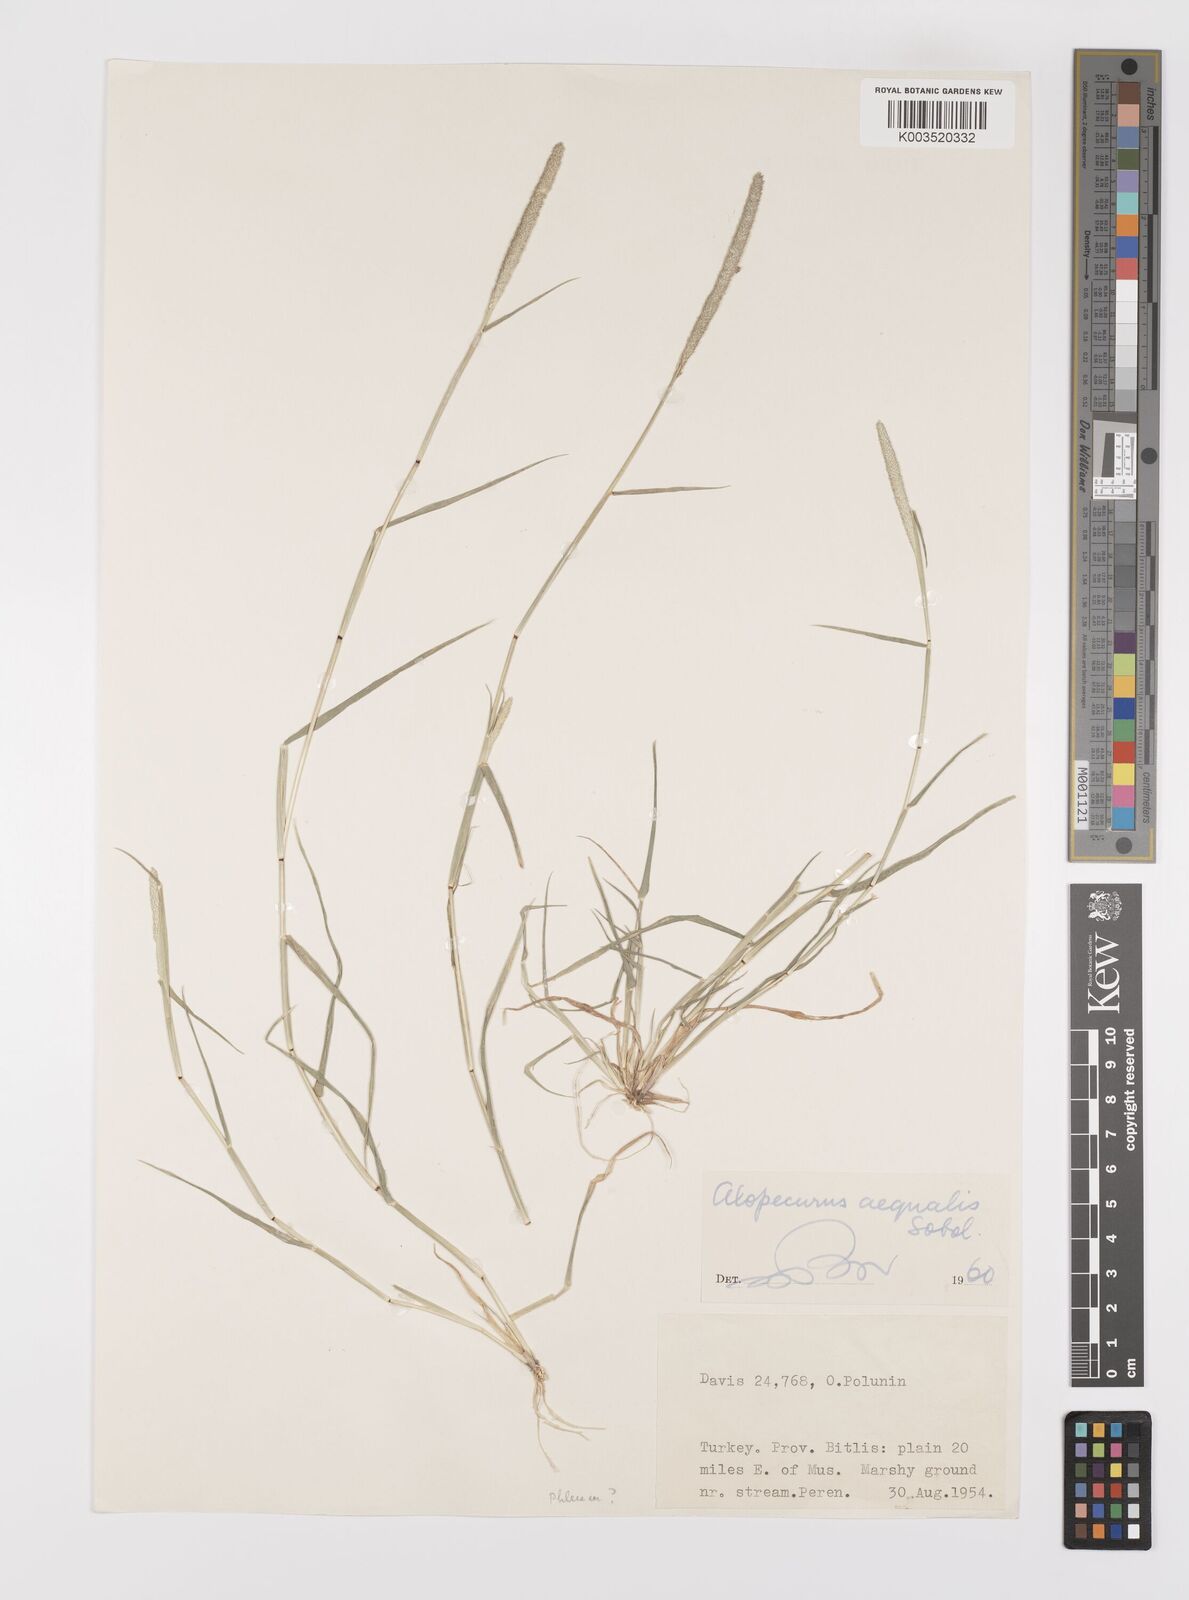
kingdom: Plantae
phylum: Tracheophyta
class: Liliopsida
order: Poales
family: Poaceae
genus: Alopecurus
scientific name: Alopecurus aequalis
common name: Orange foxtail
